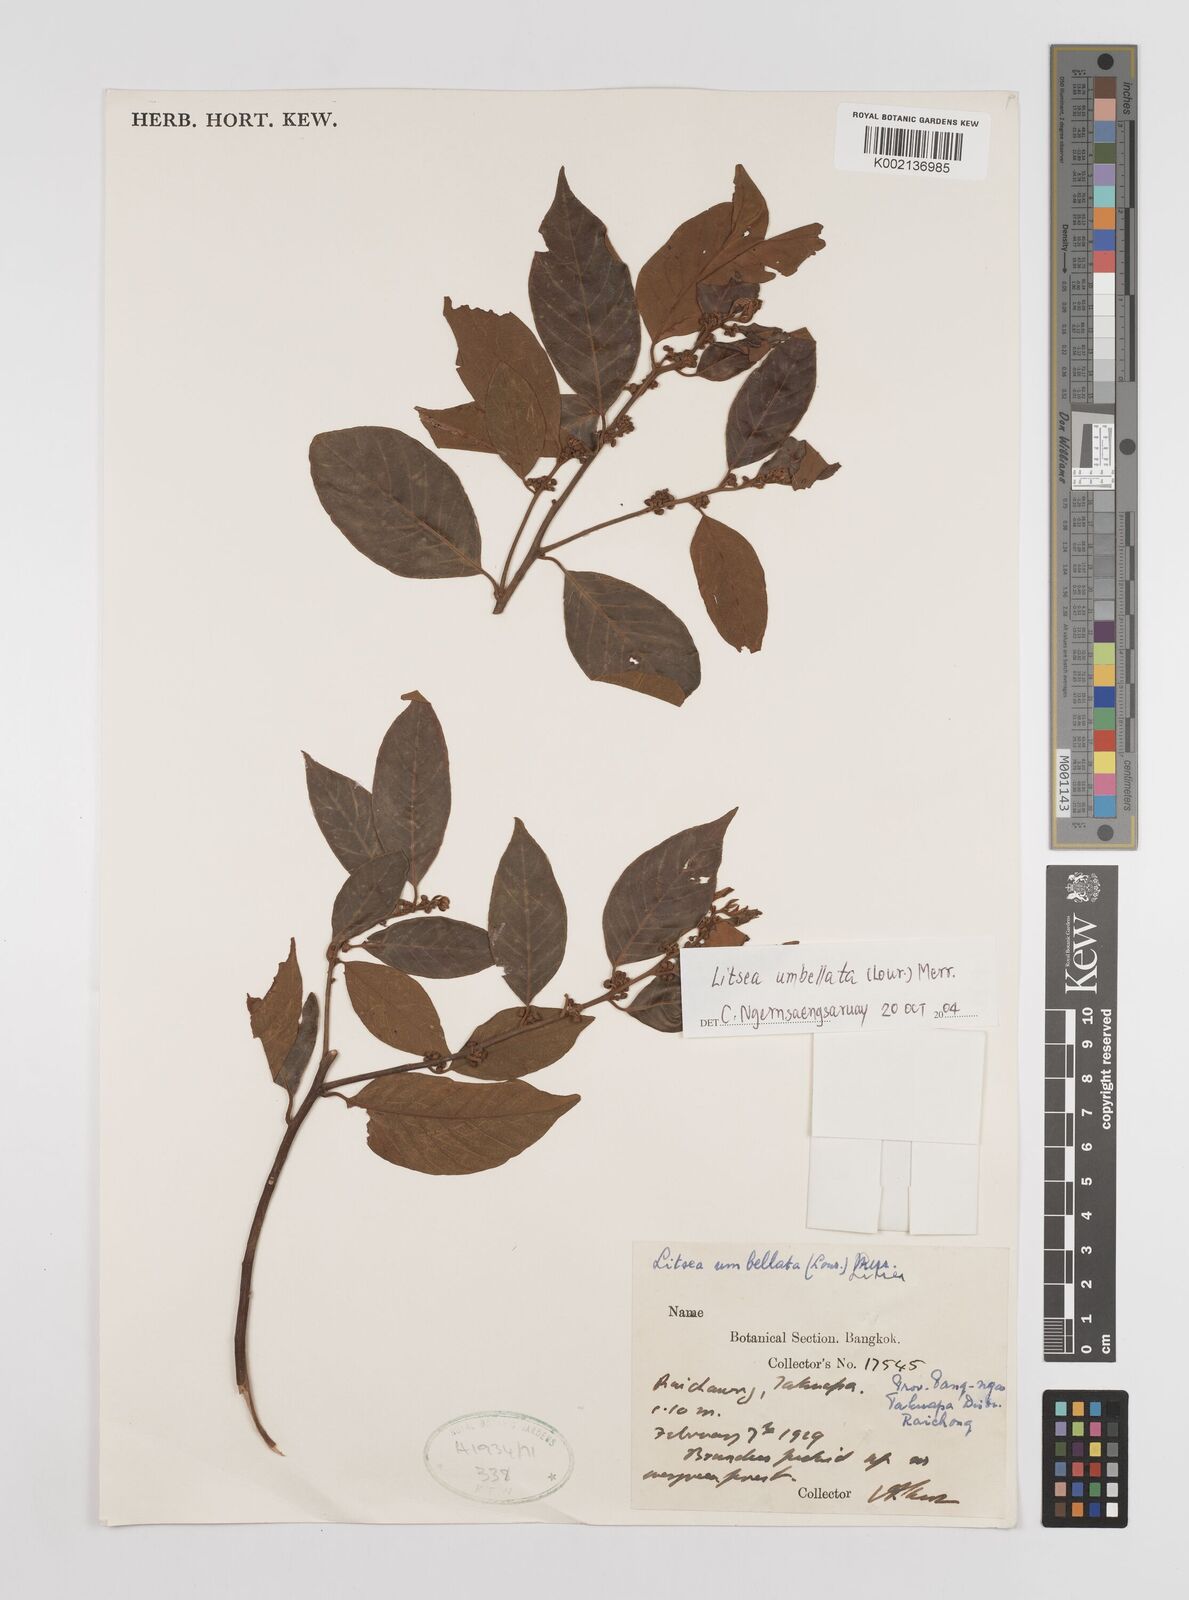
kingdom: Plantae
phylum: Tracheophyta
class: Magnoliopsida
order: Laurales
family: Lauraceae
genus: Litsea
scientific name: Litsea umbellata
